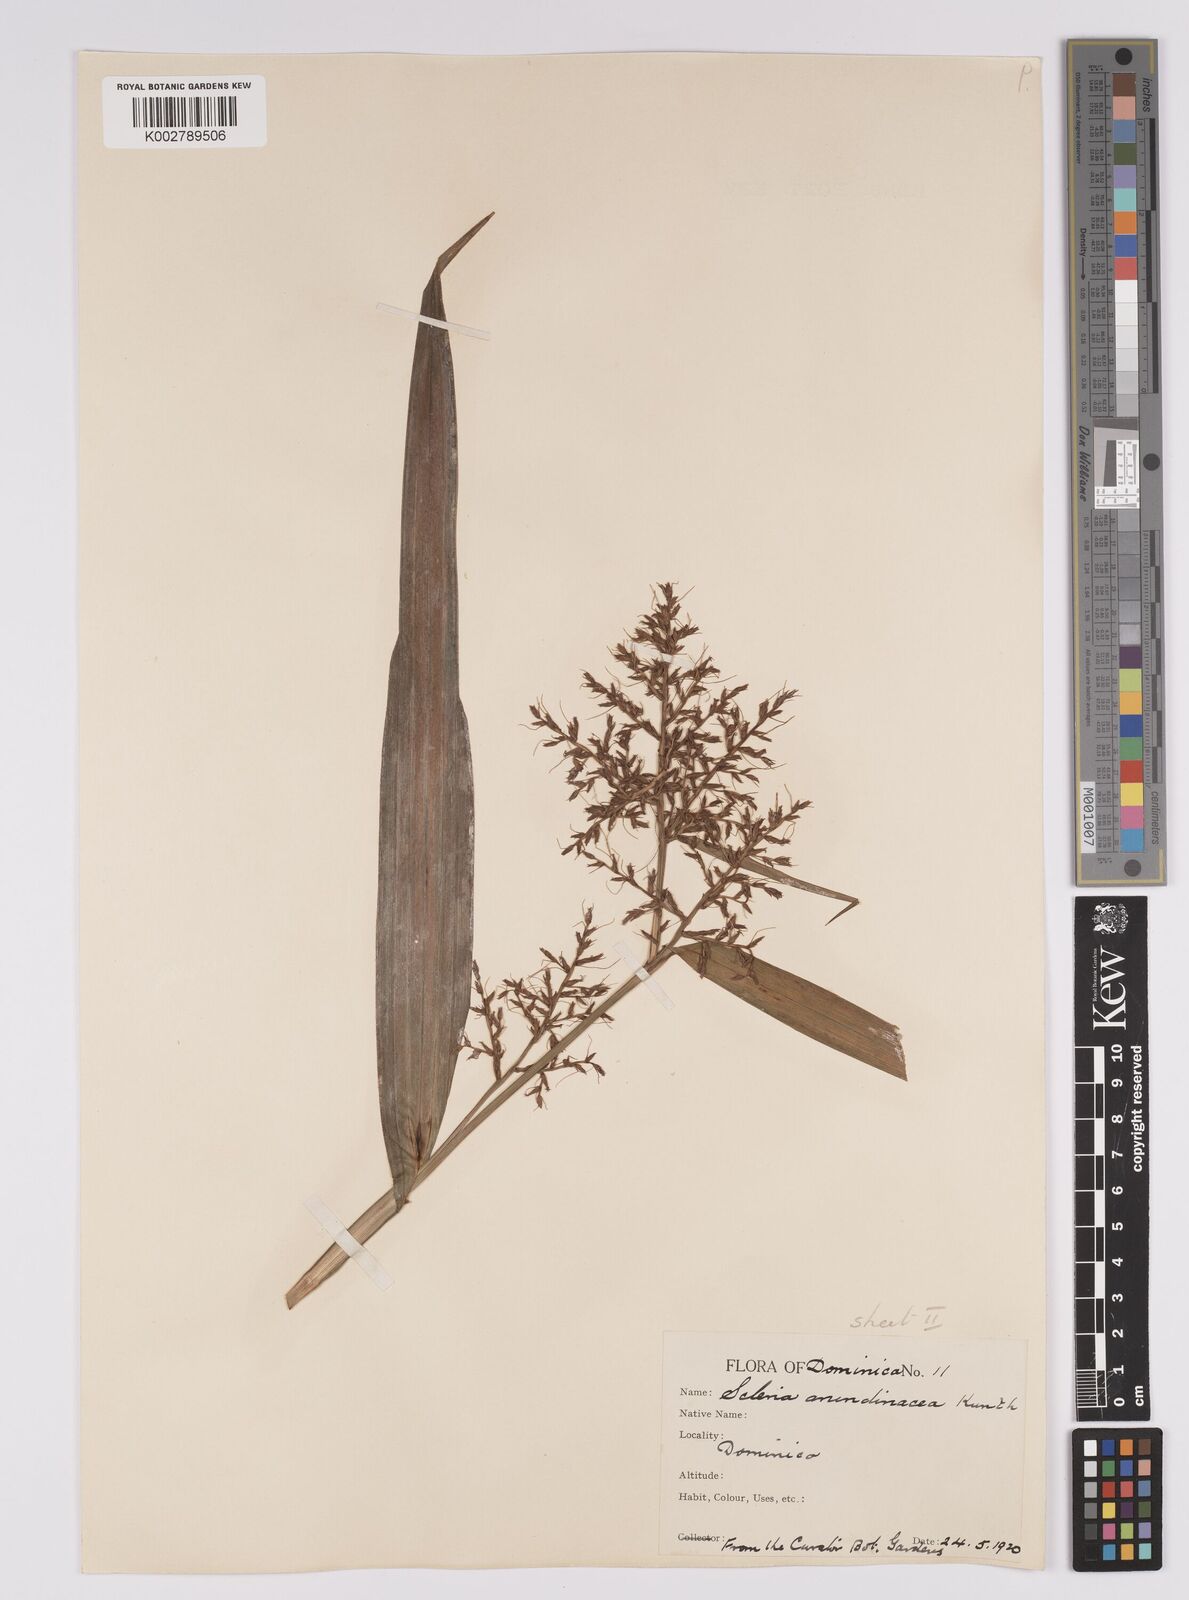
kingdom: Plantae
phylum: Tracheophyta
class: Liliopsida
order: Poales
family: Cyperaceae
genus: Scleria
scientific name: Scleria latifolia
